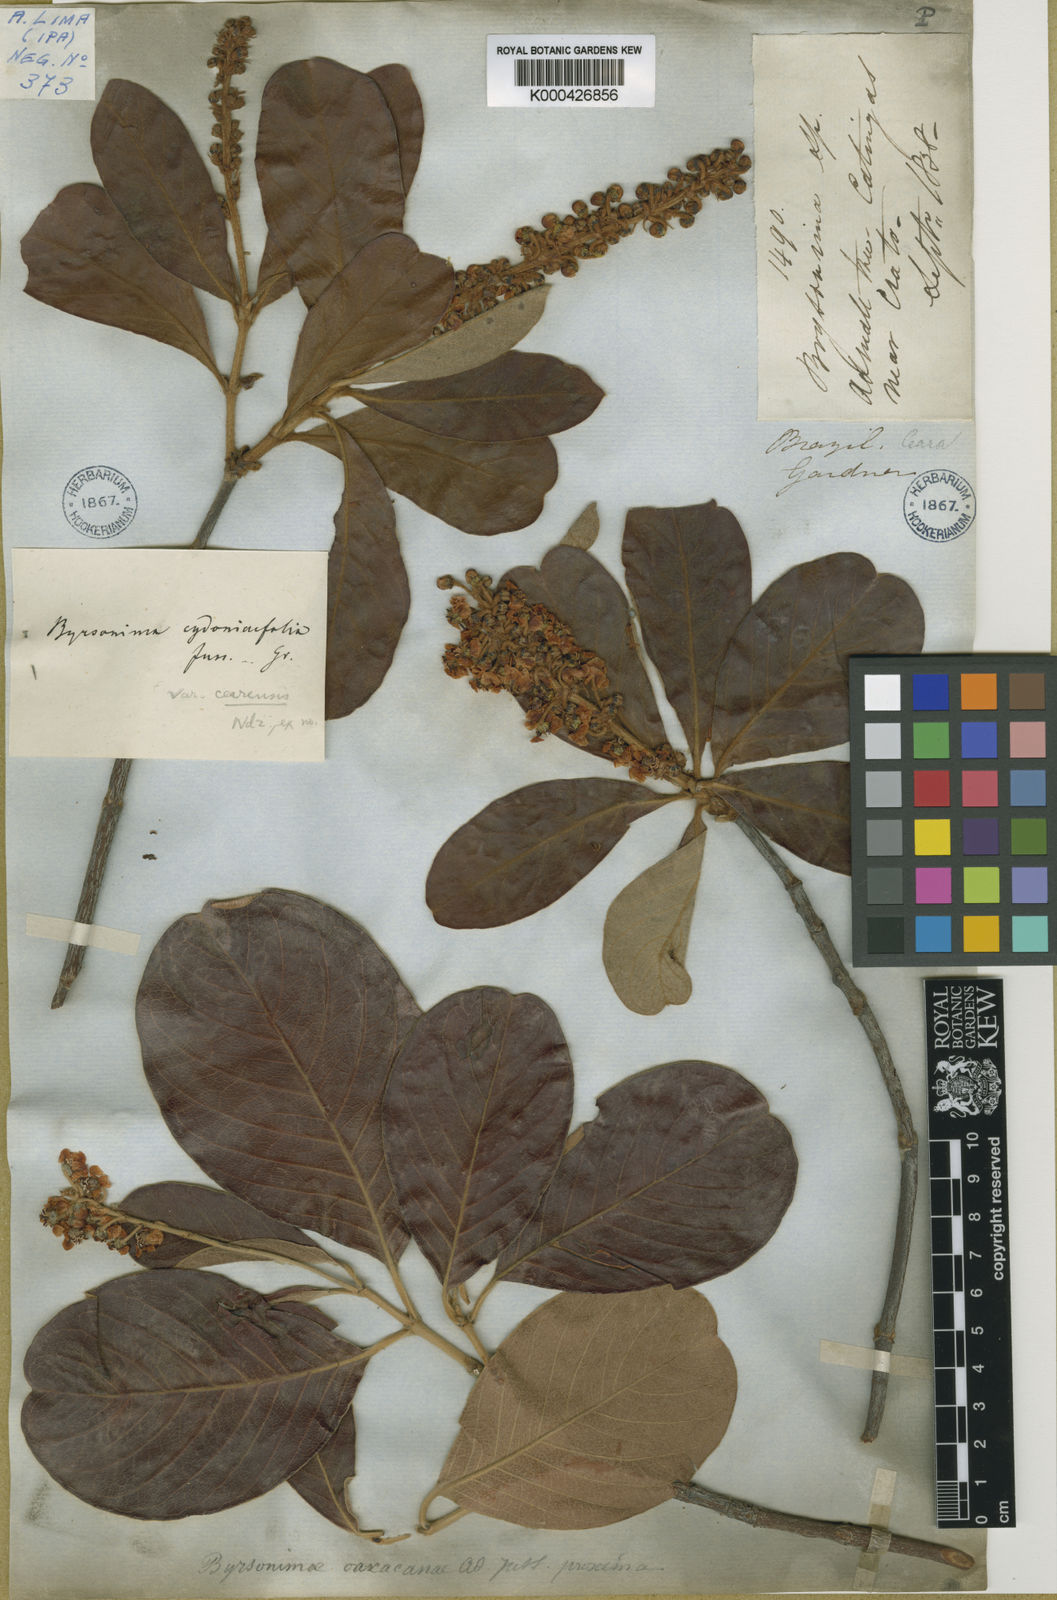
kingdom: Plantae
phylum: Tracheophyta
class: Magnoliopsida
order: Malpighiales
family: Malpighiaceae
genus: Byrsonima
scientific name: Byrsonima cydoniifolia
